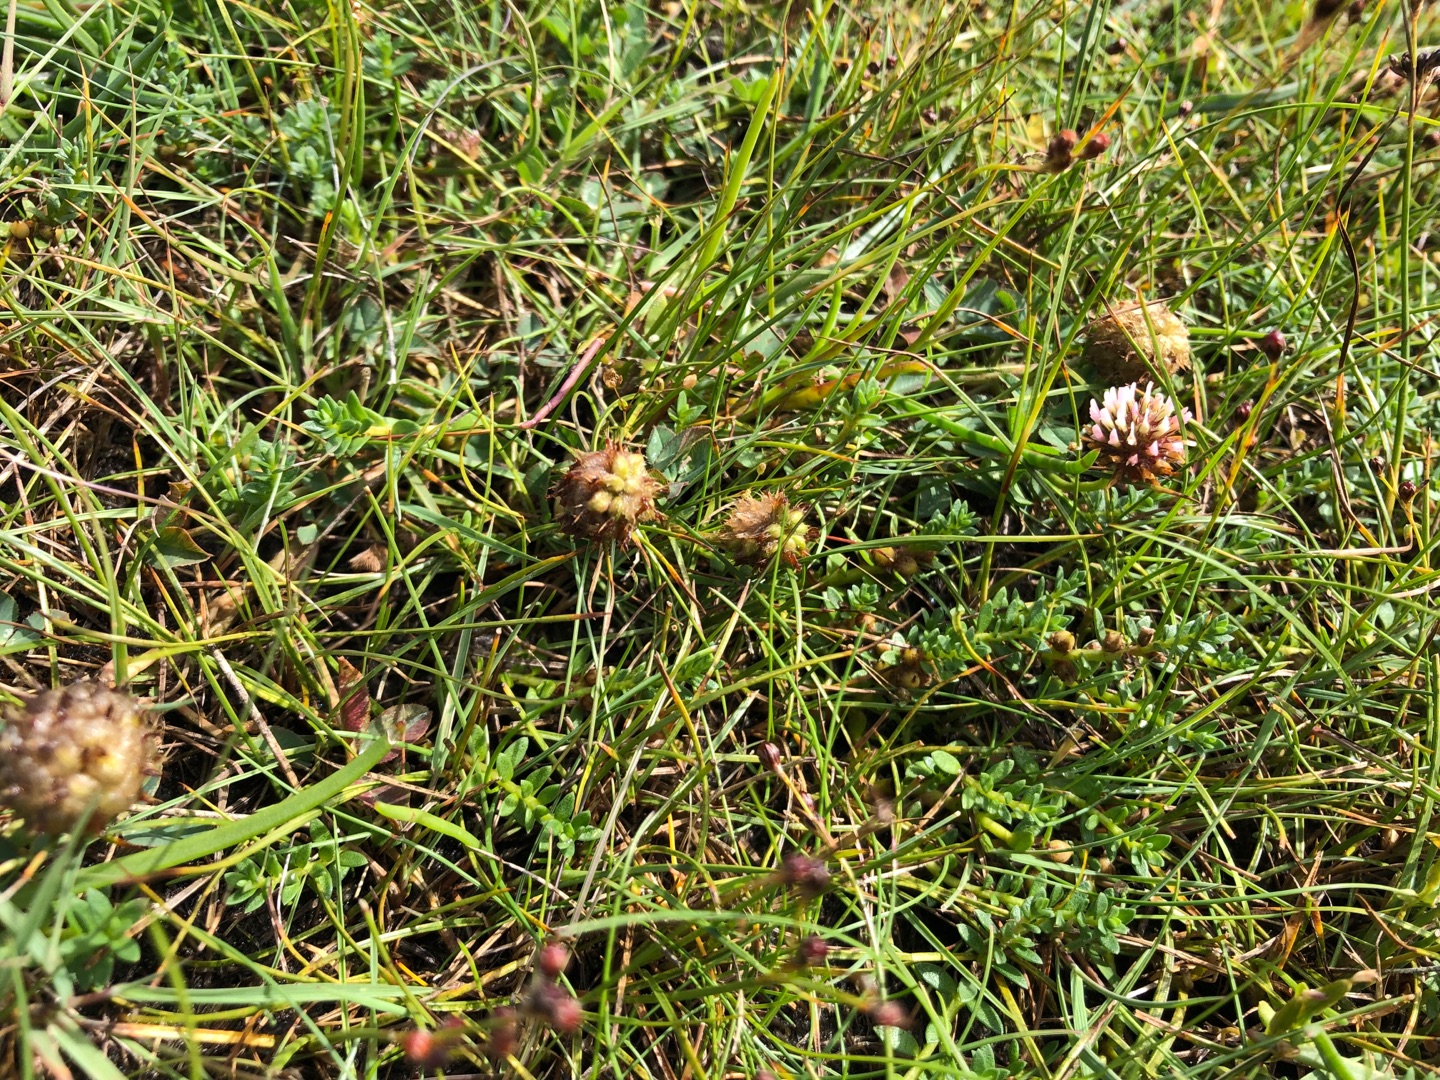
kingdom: Plantae
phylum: Tracheophyta
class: Magnoliopsida
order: Fabales
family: Fabaceae
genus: Trifolium
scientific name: Trifolium fragiferum
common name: Jordbær-kløver
